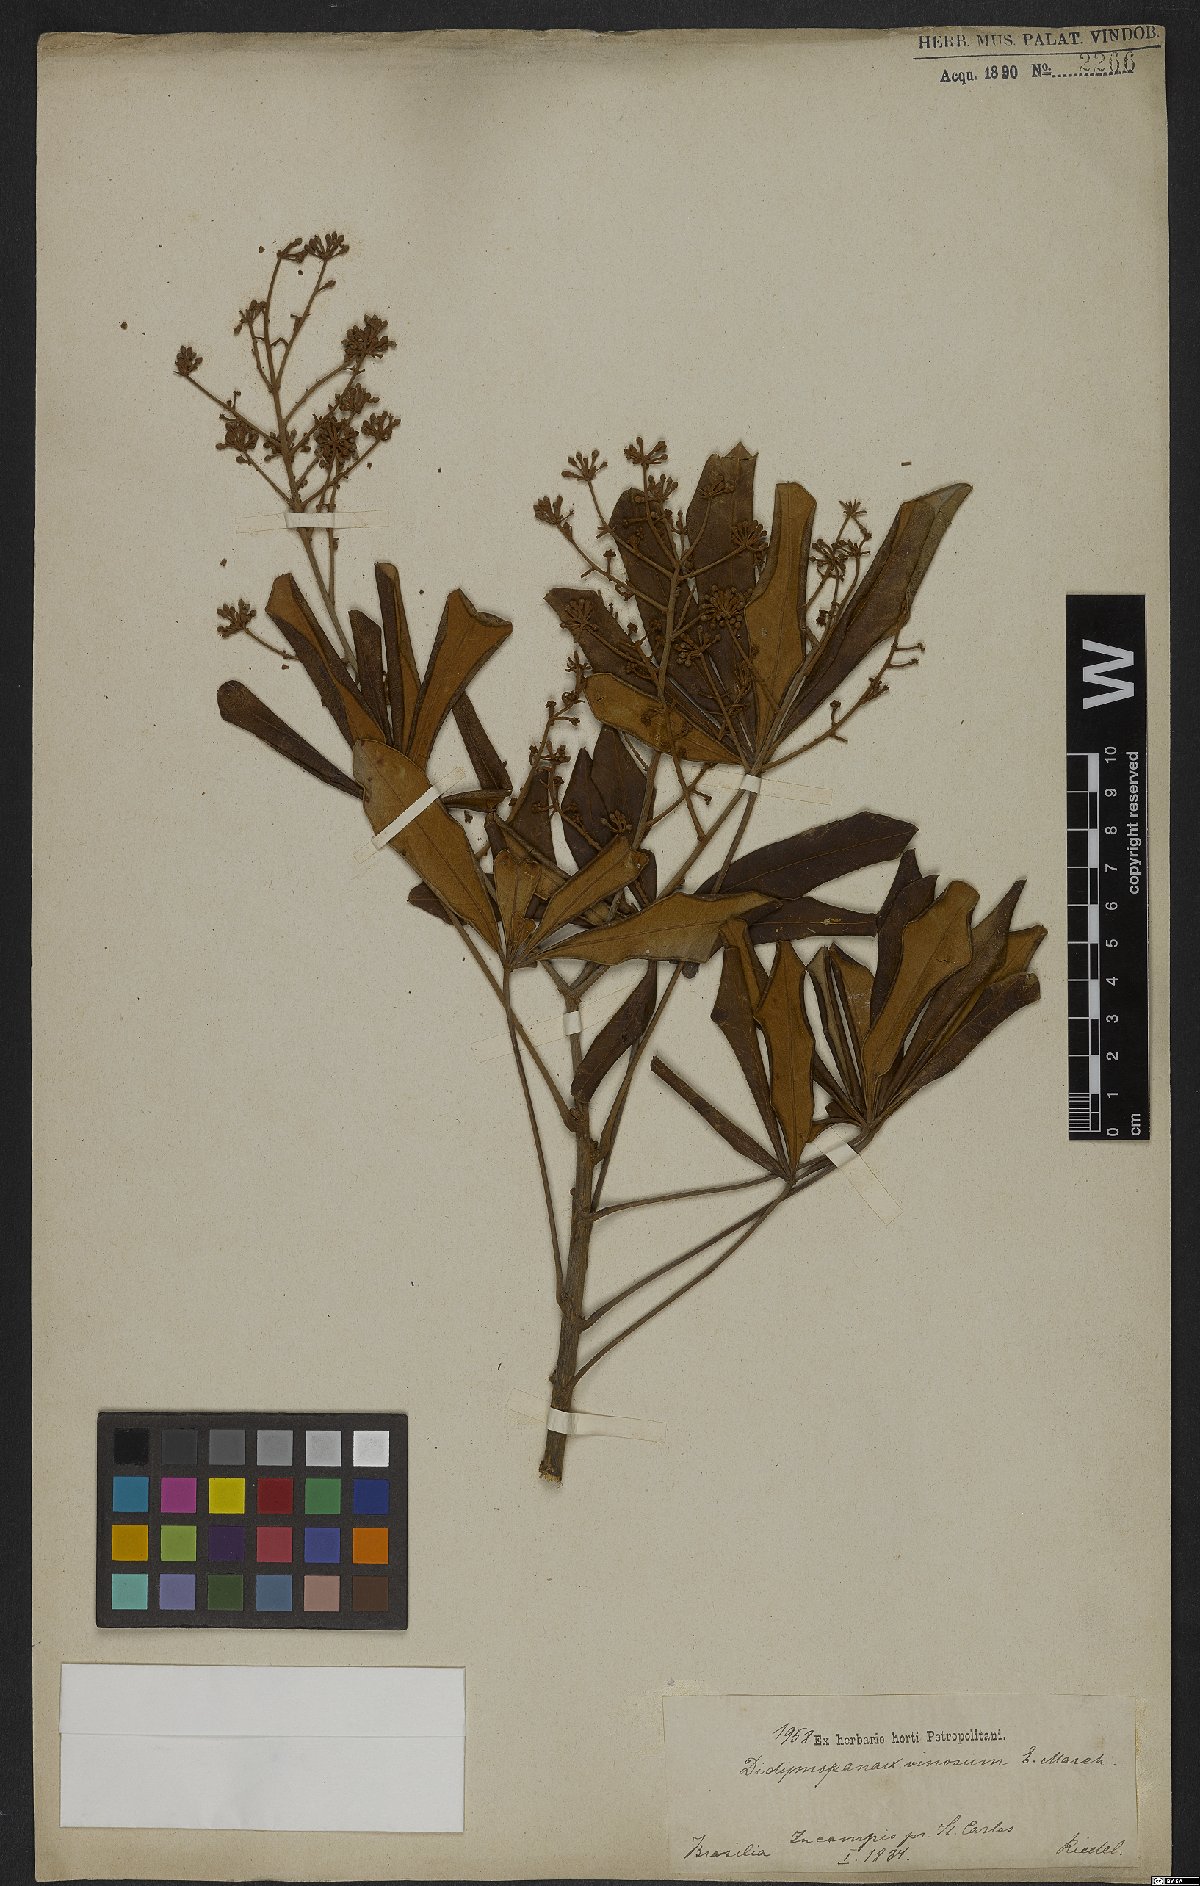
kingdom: Plantae
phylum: Tracheophyta
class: Magnoliopsida
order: Apiales
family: Araliaceae
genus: Didymopanax
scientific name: Didymopanax vinosus
